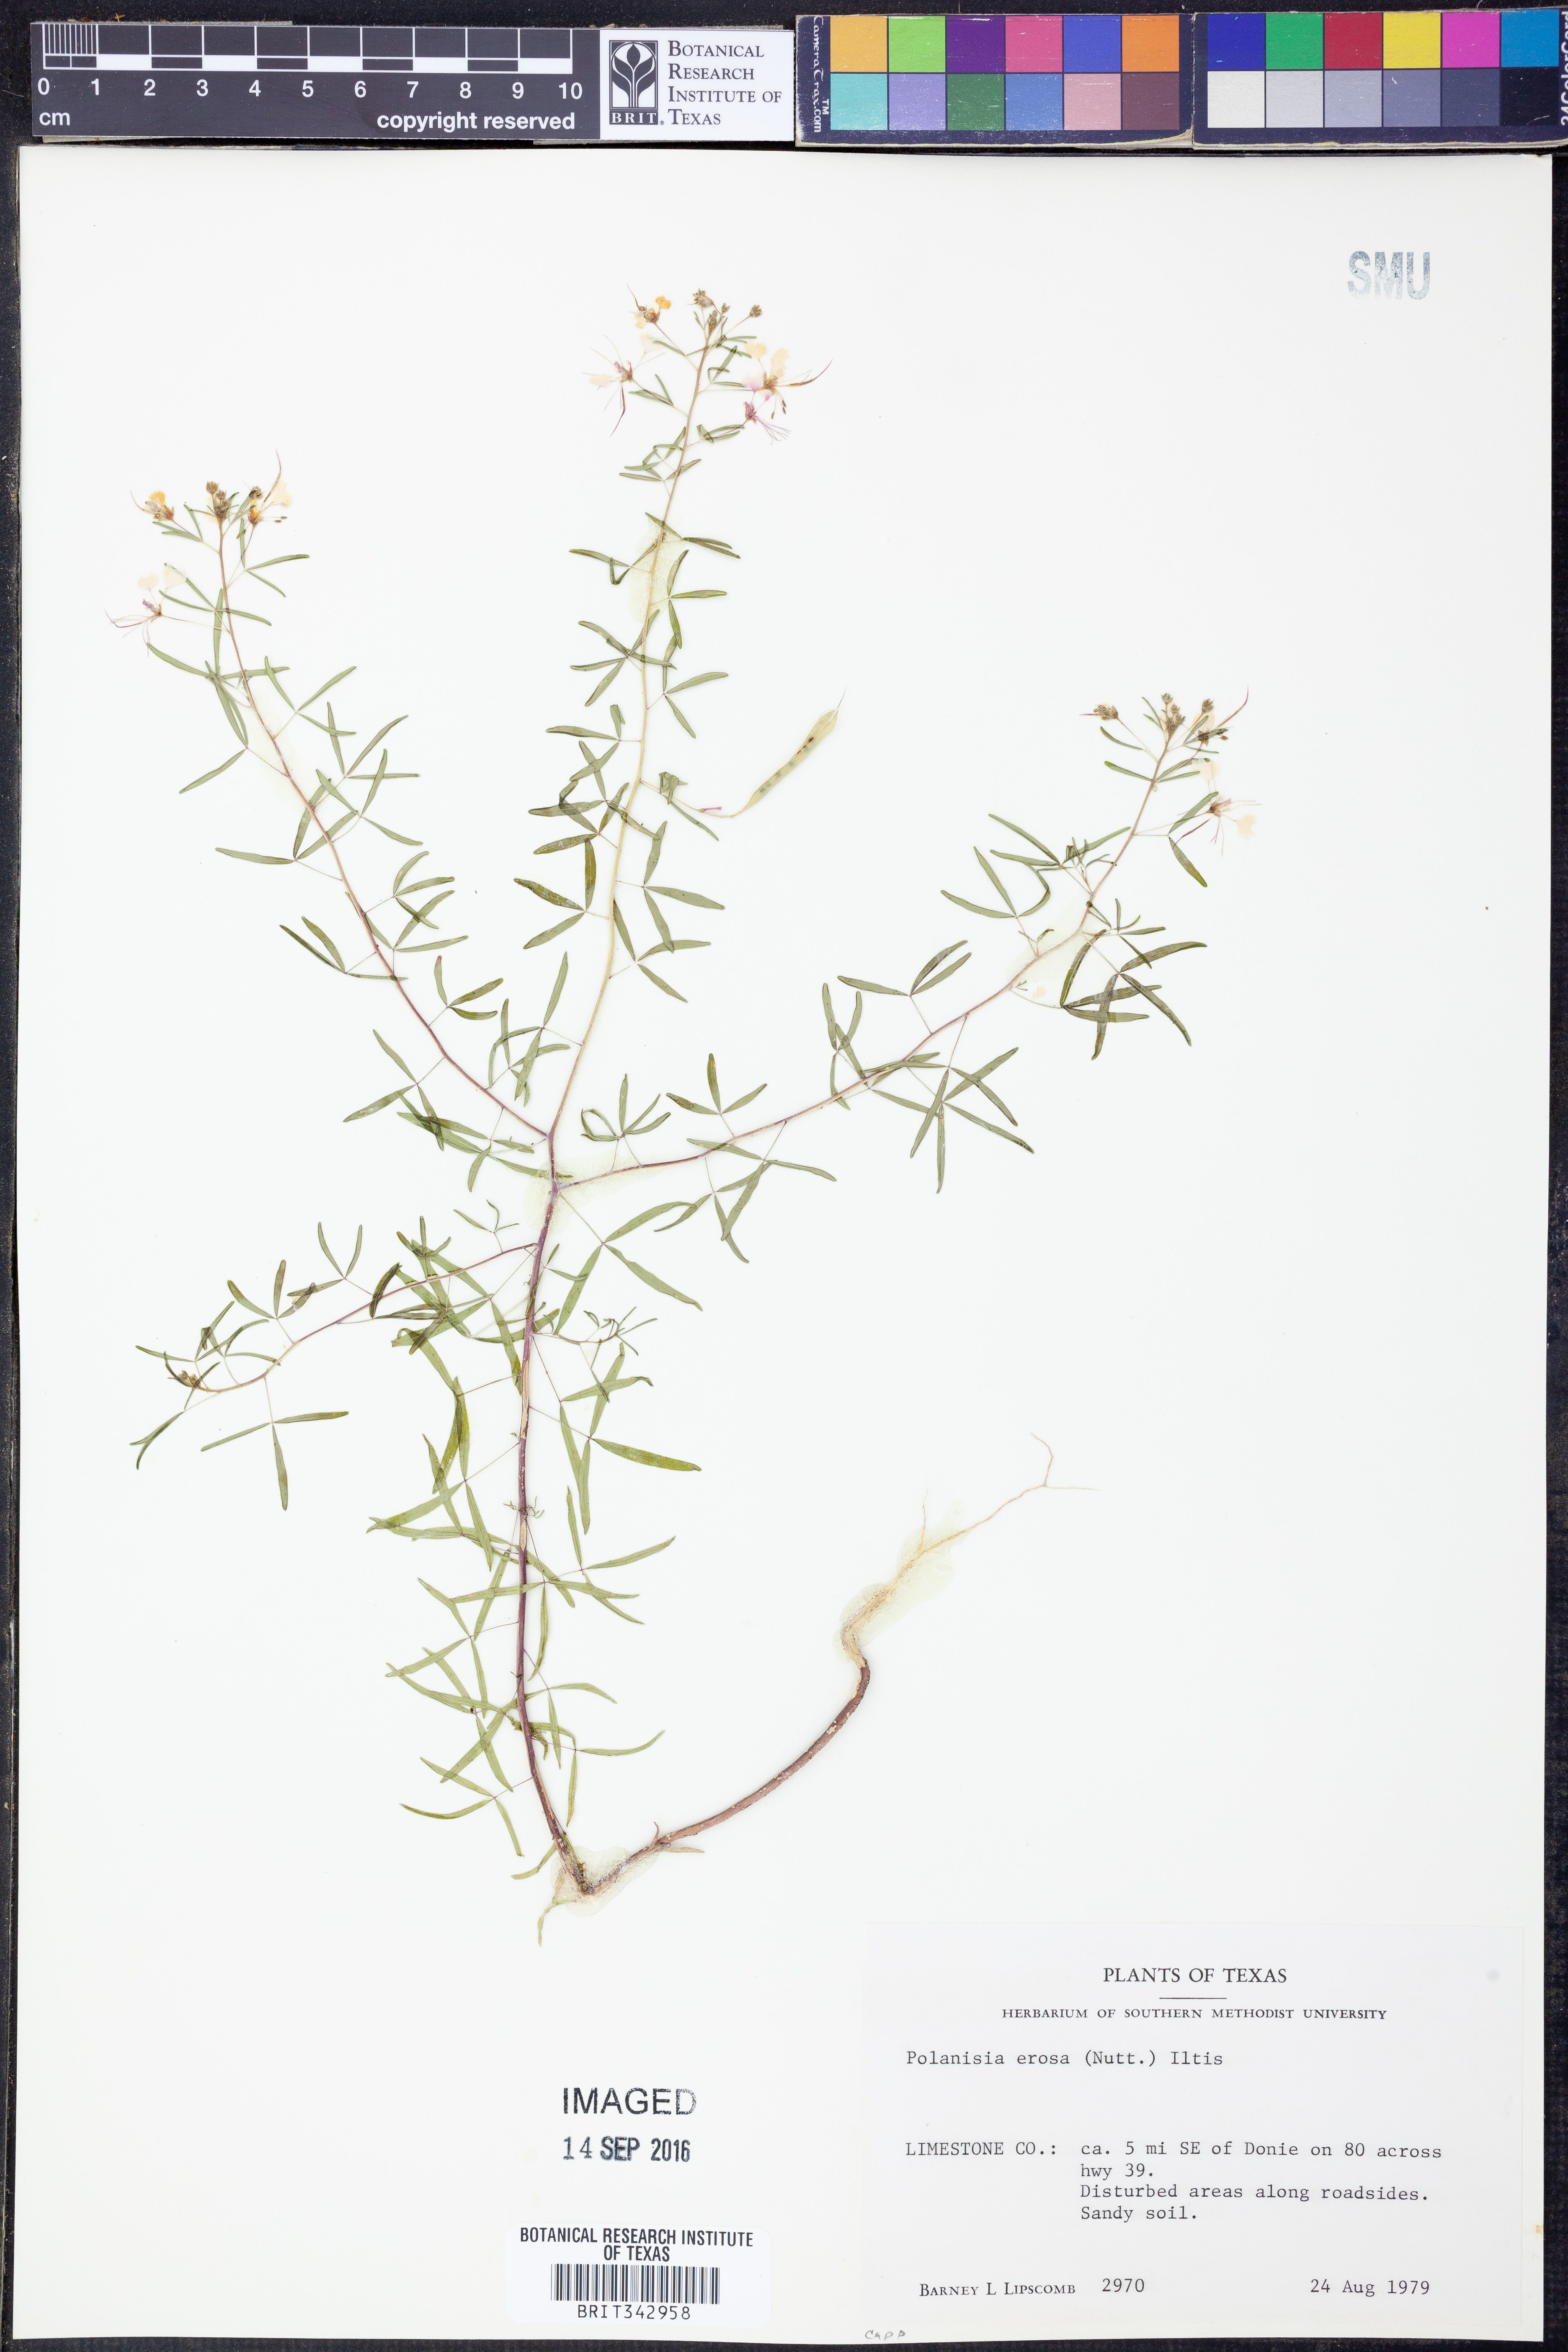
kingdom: Plantae
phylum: Tracheophyta
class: Magnoliopsida
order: Brassicales
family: Cleomaceae
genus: Polanisia
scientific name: Polanisia erosa
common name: Large clammyweed
